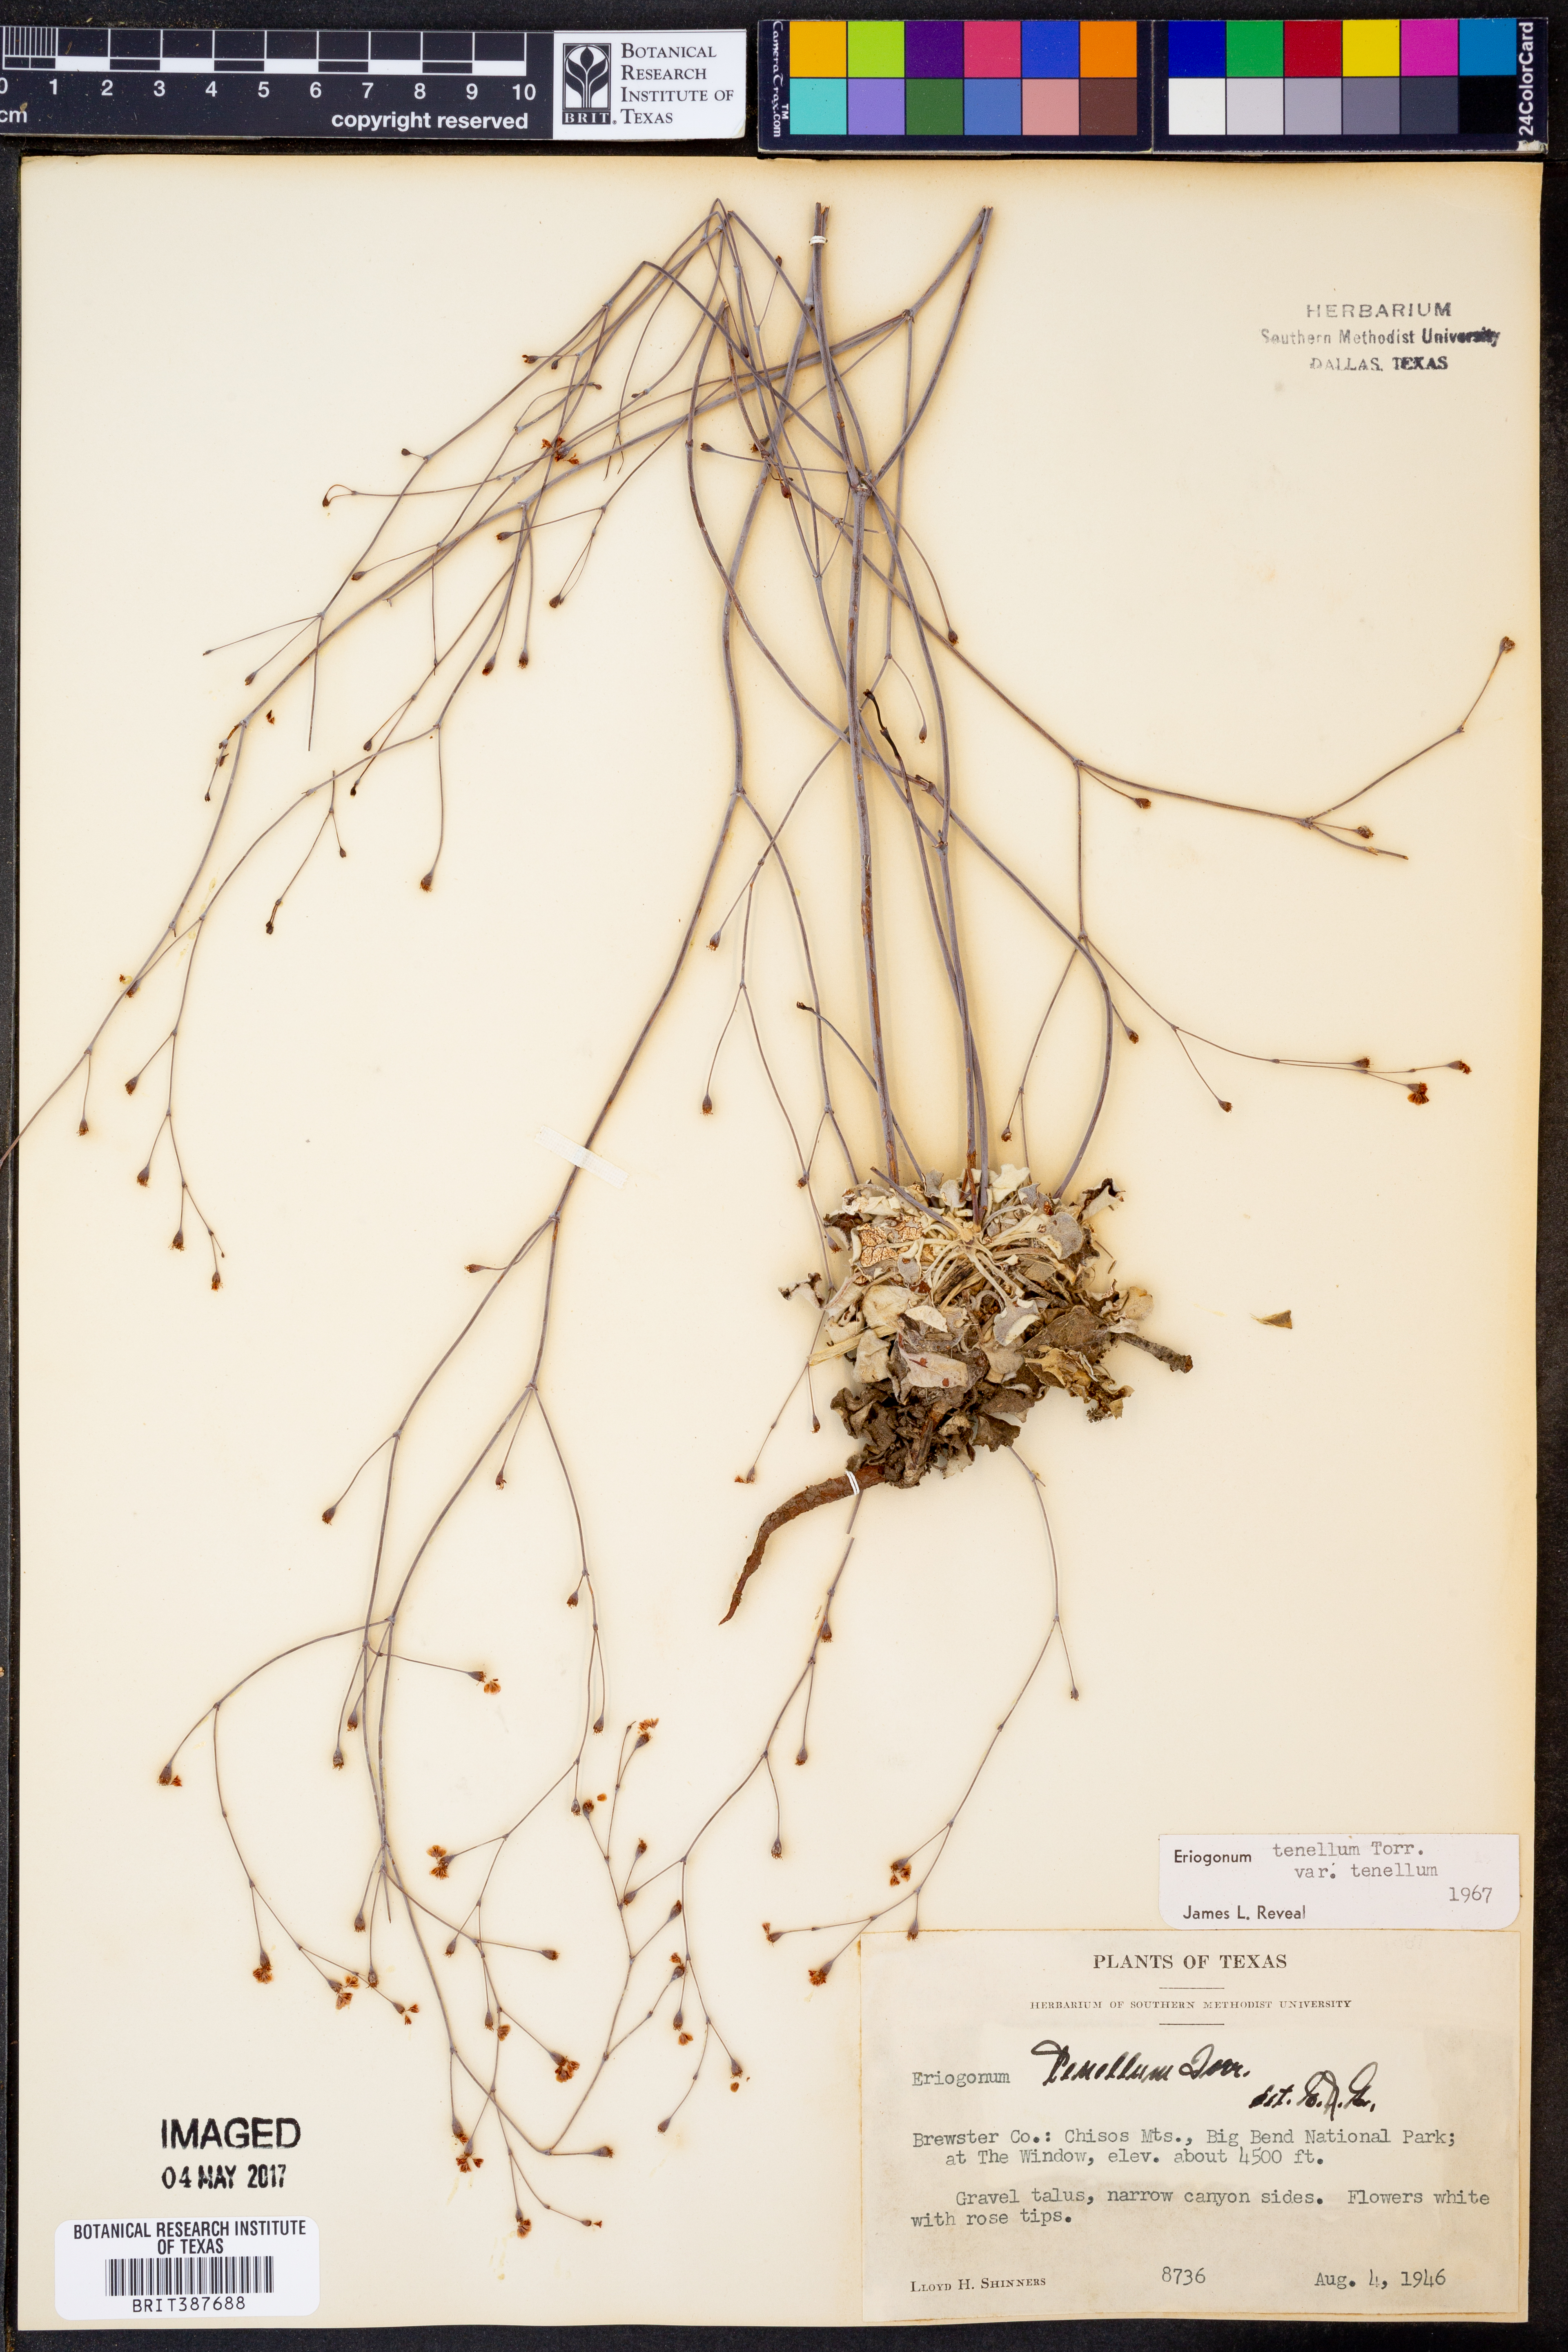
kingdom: Plantae
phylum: Tracheophyta
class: Magnoliopsida
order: Caryophyllales
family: Polygonaceae
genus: Eriogonum
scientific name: Eriogonum tenellum
